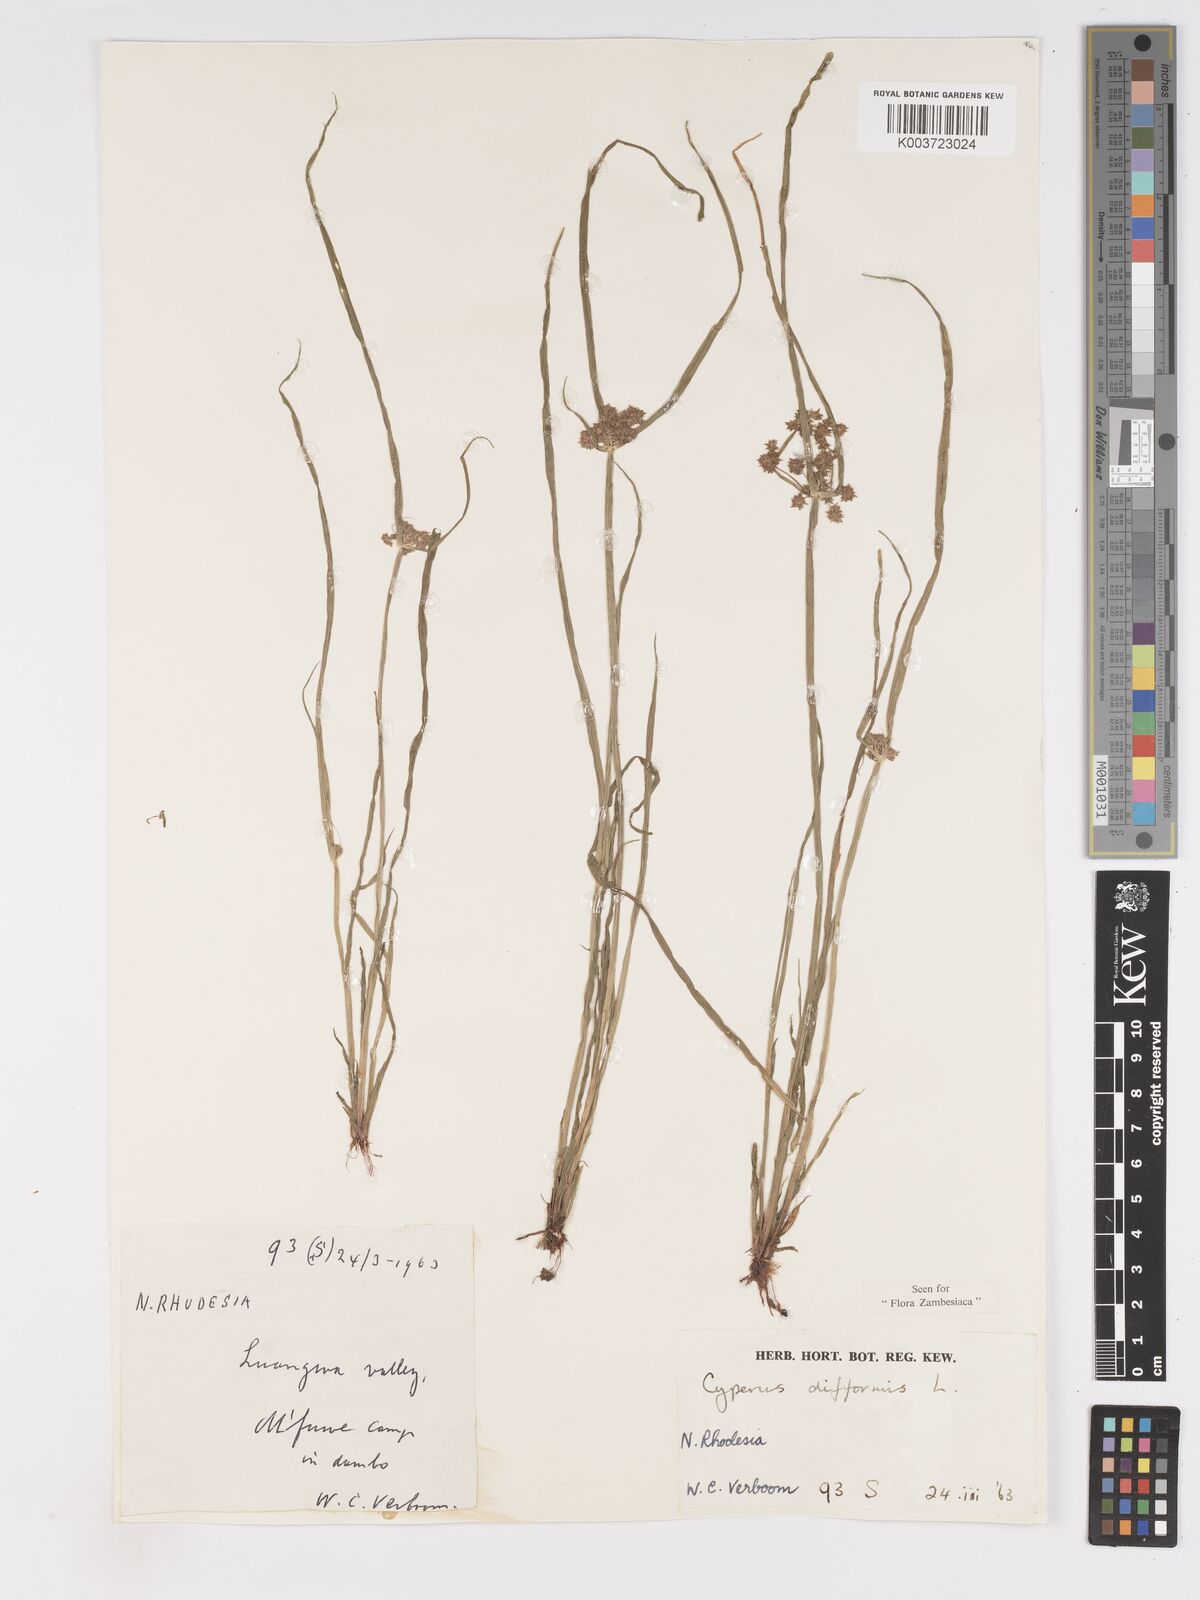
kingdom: Plantae
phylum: Tracheophyta
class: Liliopsida
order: Poales
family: Cyperaceae
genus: Cyperus
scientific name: Cyperus difformis
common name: Variable flatsedge
